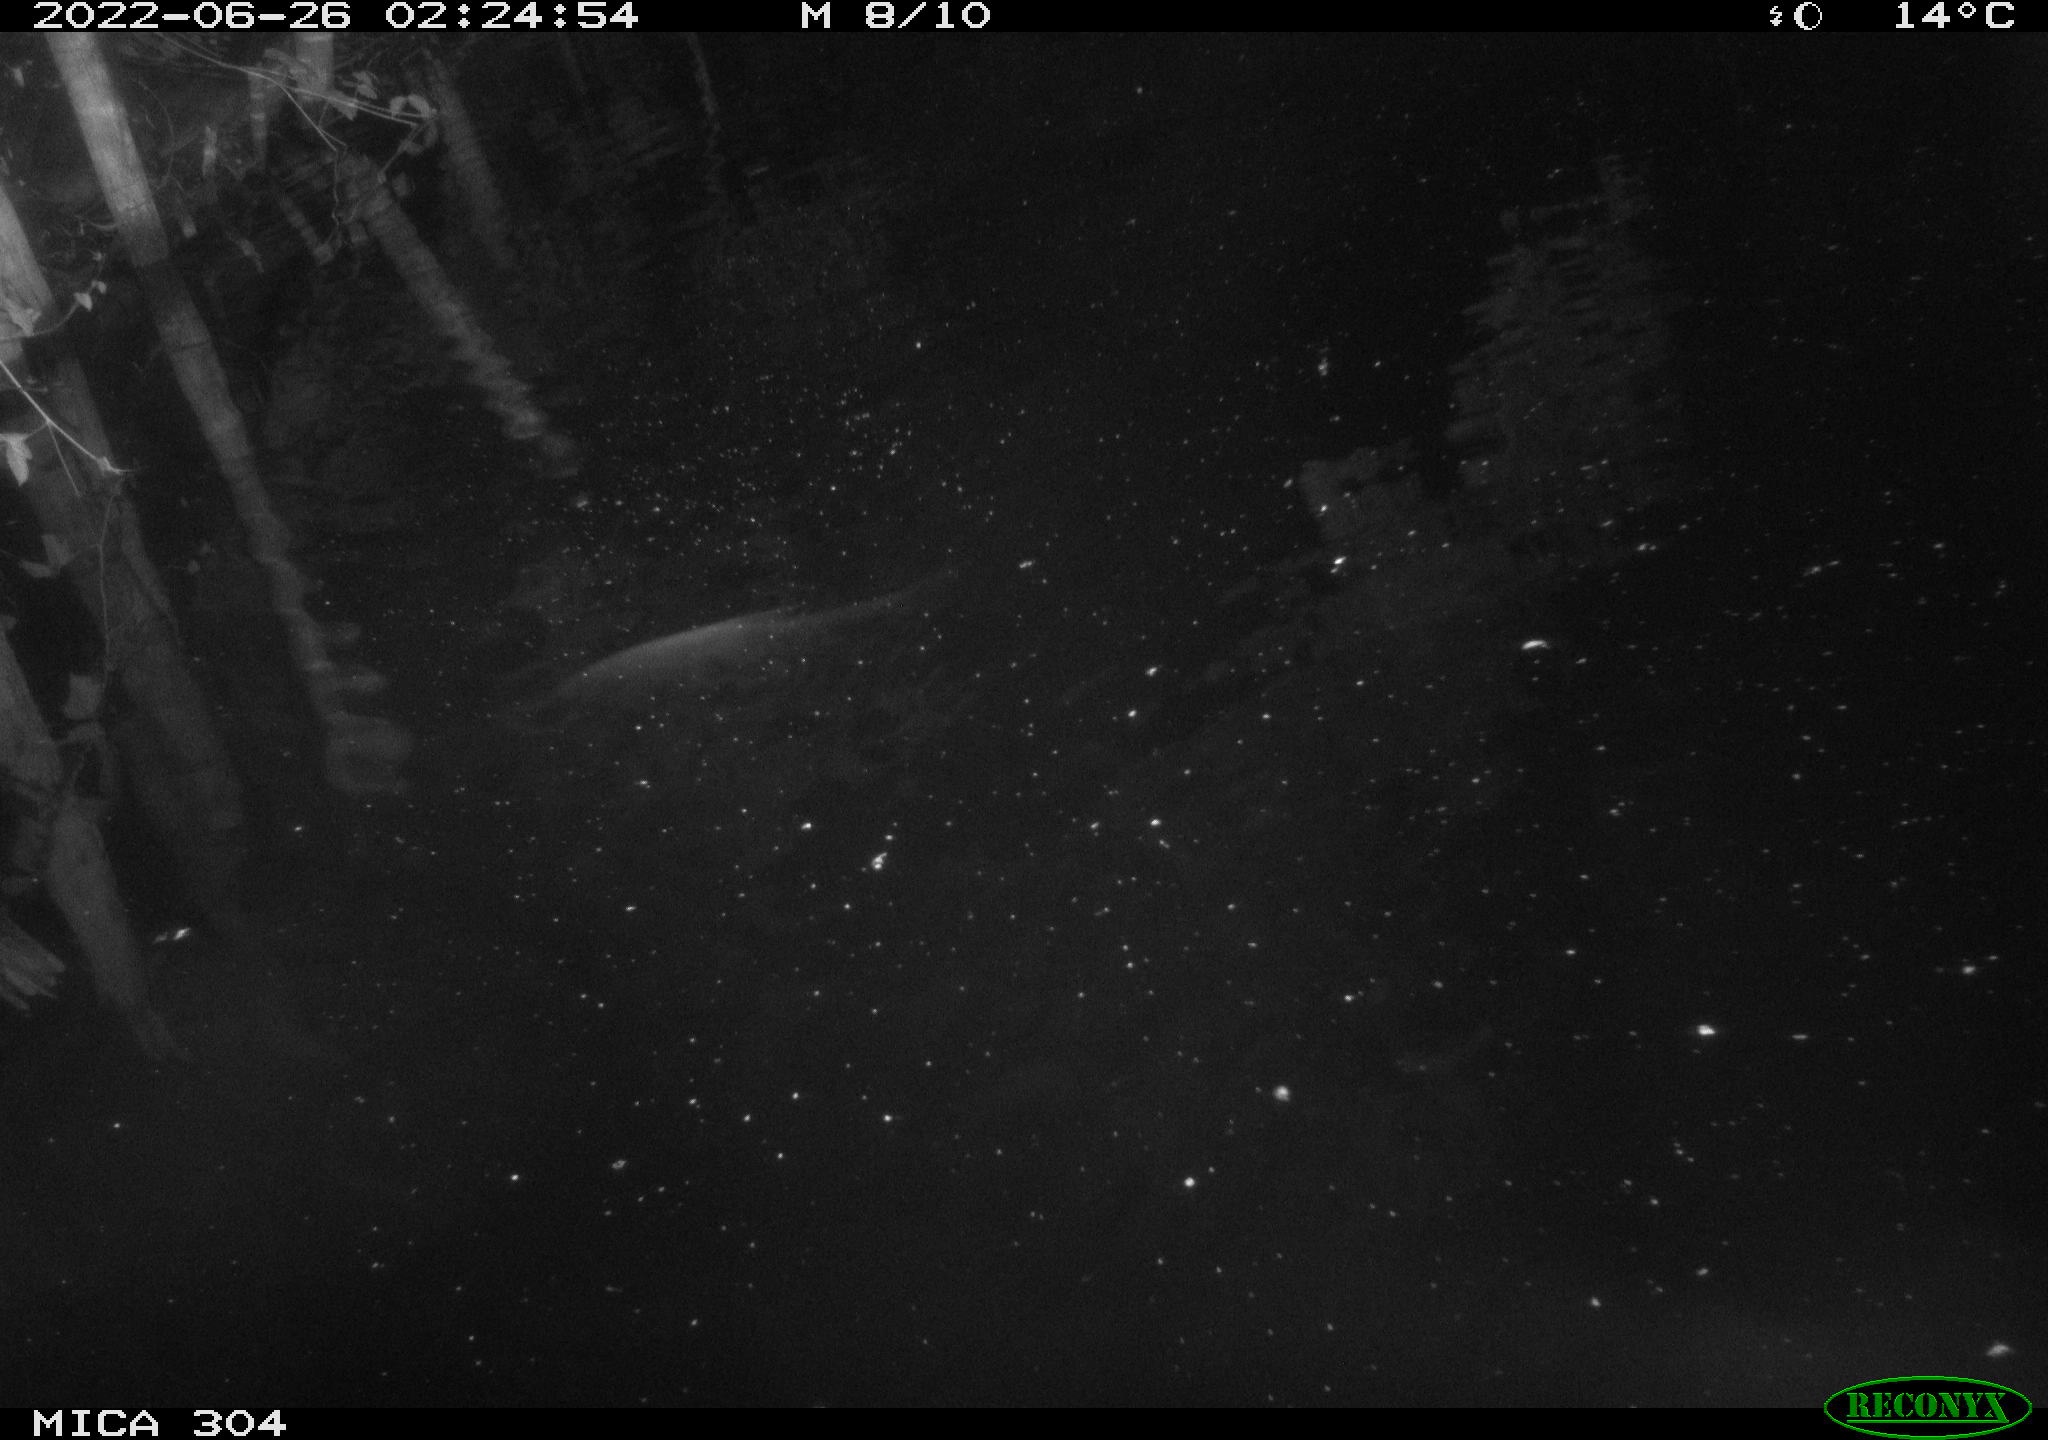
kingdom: Animalia
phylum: Chordata
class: Mammalia
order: Rodentia
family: Cricetidae
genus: Ondatra
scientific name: Ondatra zibethicus
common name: Muskrat
